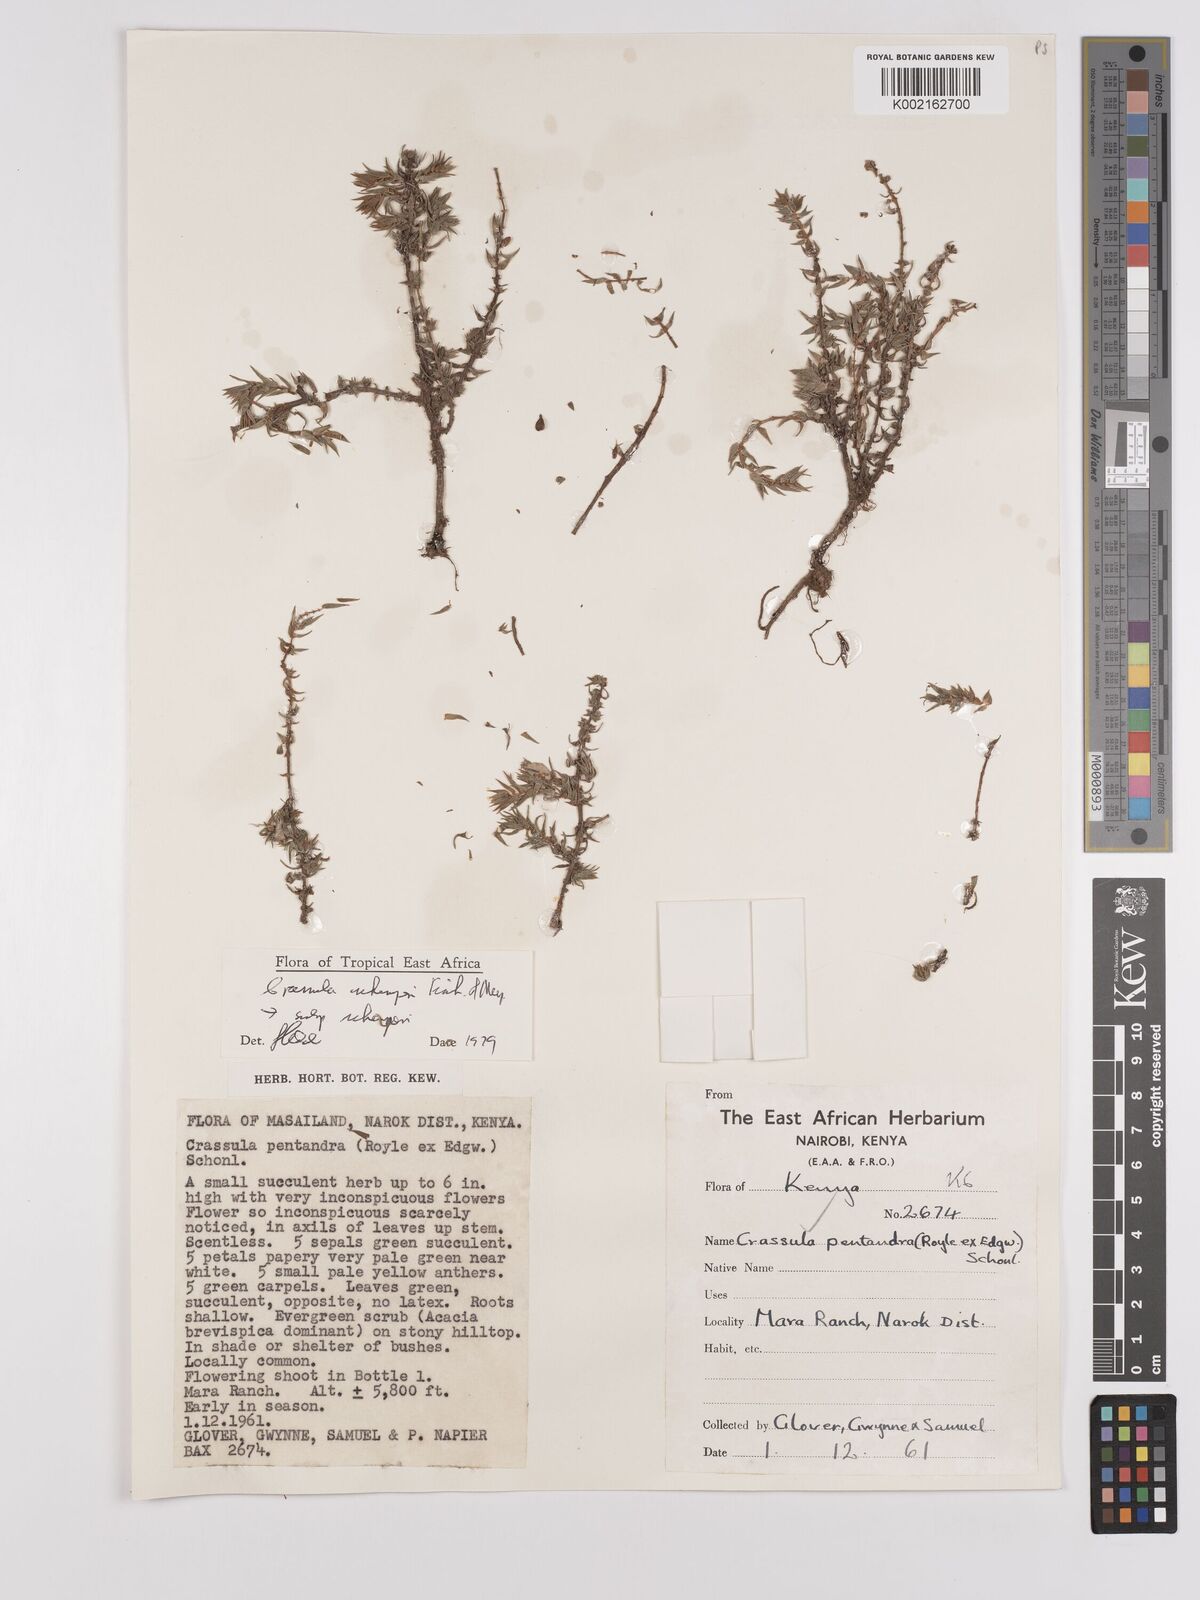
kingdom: Plantae
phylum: Tracheophyta
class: Magnoliopsida
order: Saxifragales
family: Crassulaceae
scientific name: Crassulaceae
